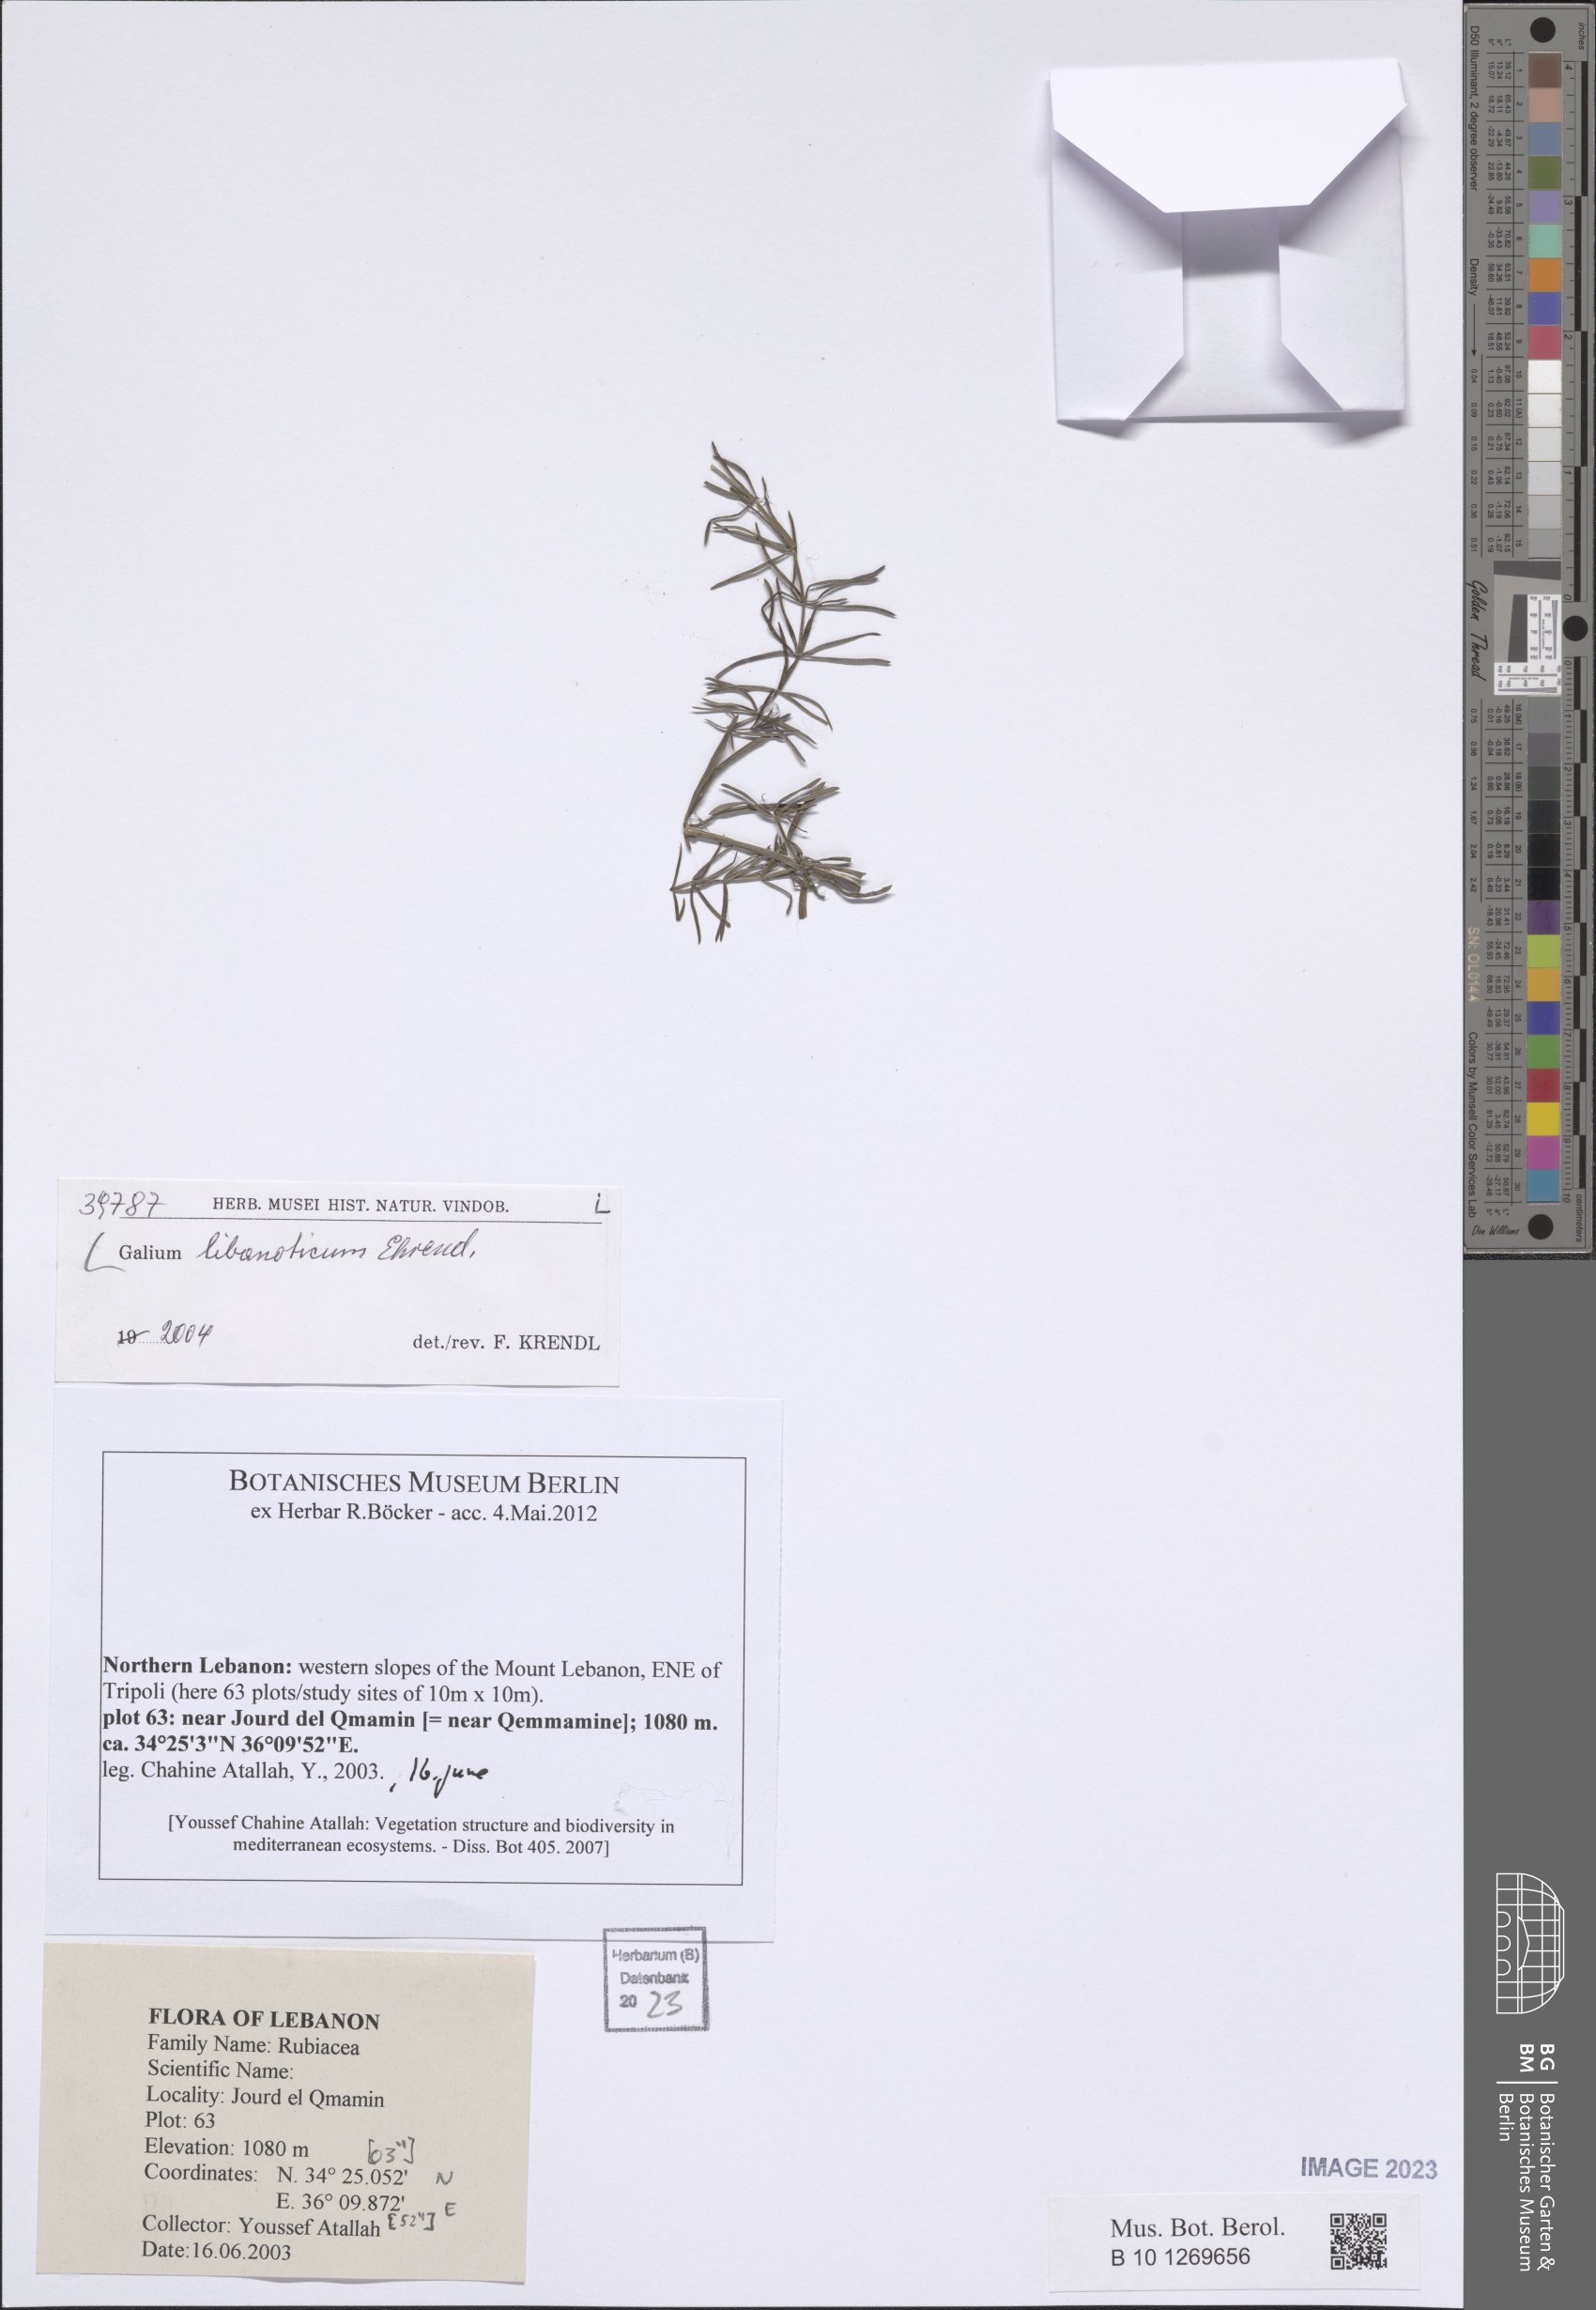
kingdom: Plantae
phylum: Tracheophyta
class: Magnoliopsida
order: Gentianales
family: Rubiaceae
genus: Galium
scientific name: Galium libanoticum
